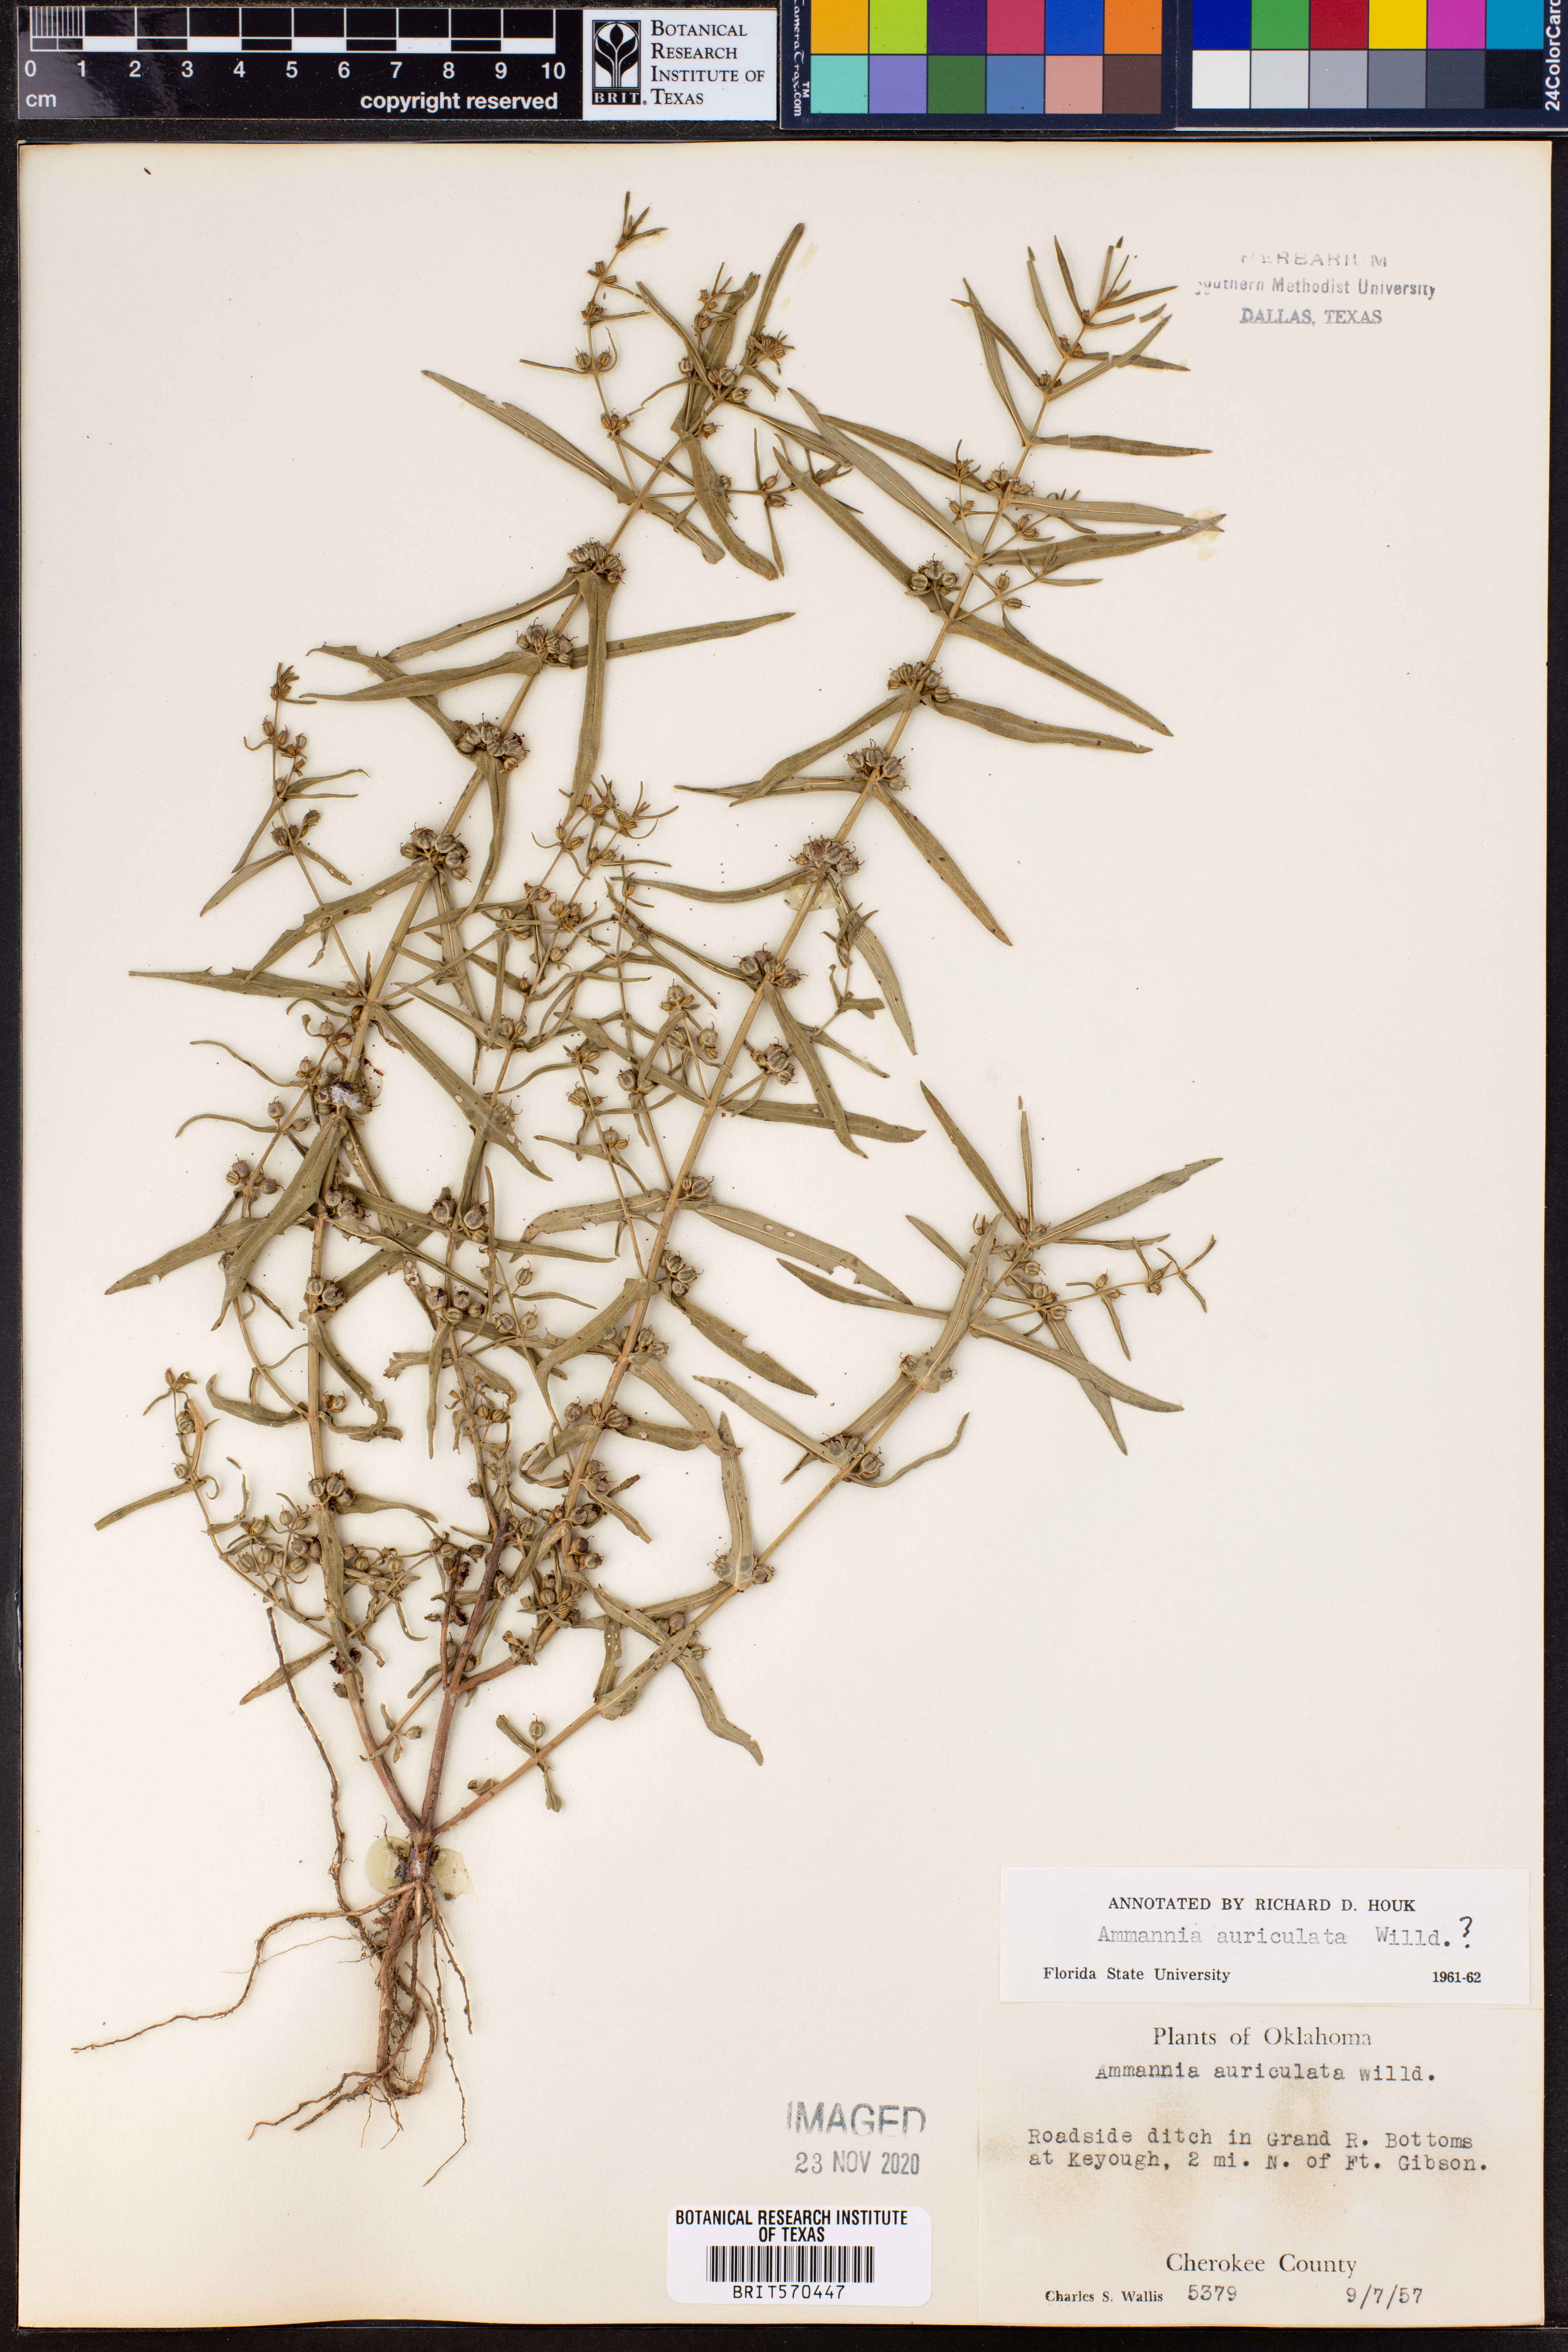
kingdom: Plantae
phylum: Tracheophyta
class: Magnoliopsida
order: Myrtales
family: Lythraceae
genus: Ammannia
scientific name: Ammannia auriculata
